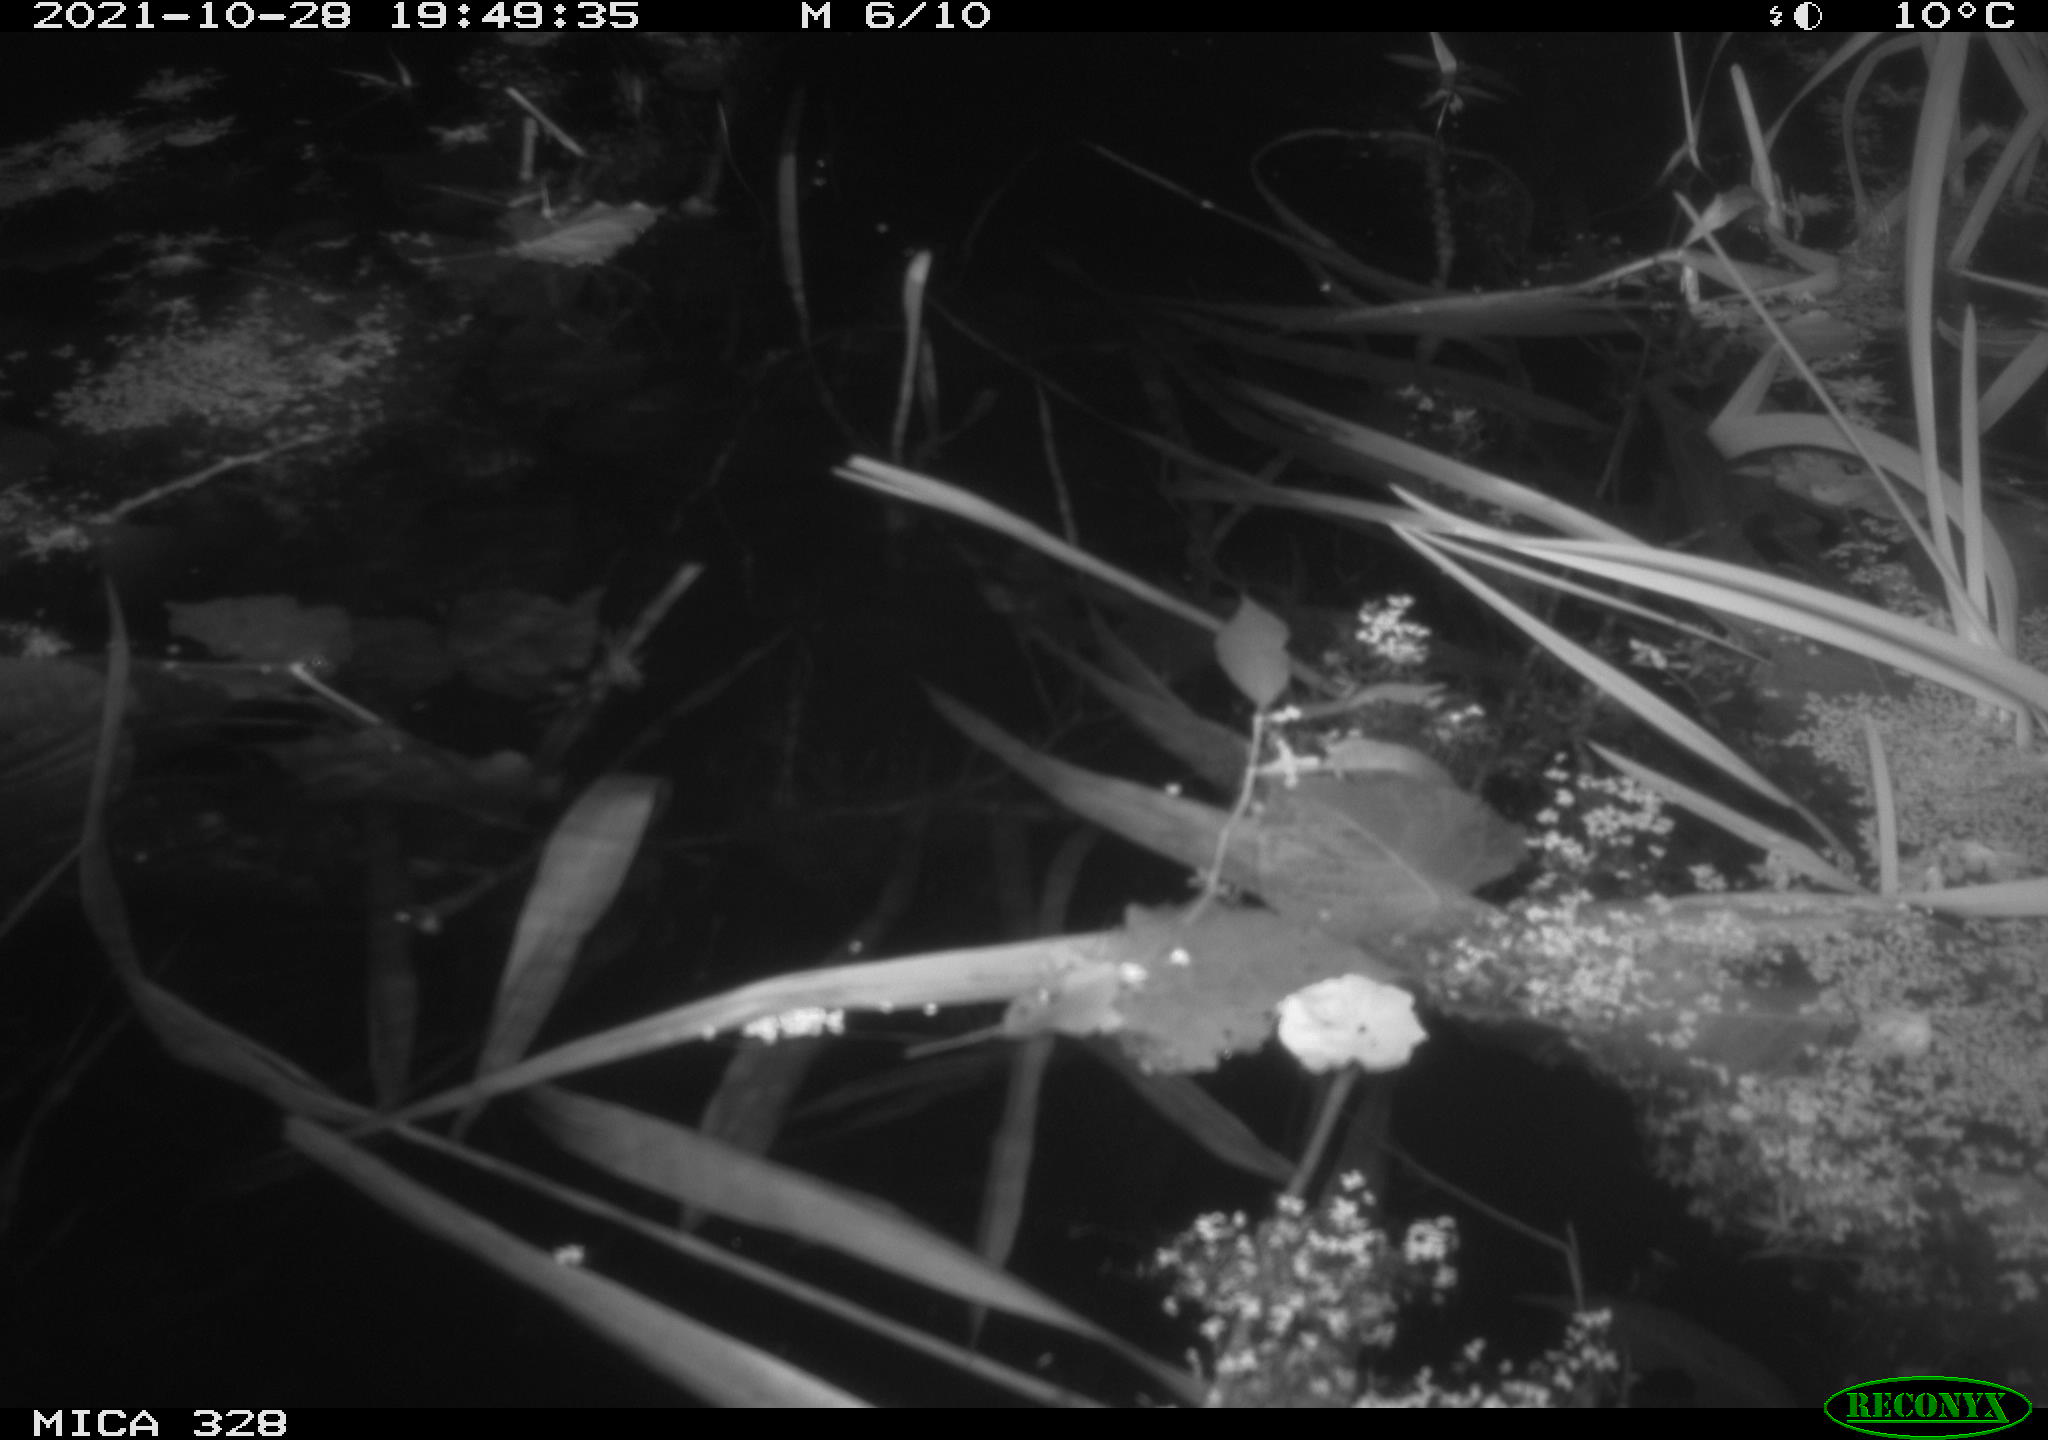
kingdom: Animalia
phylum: Chordata
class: Mammalia
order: Rodentia
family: Cricetidae
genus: Ondatra
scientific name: Ondatra zibethicus
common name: Muskrat
